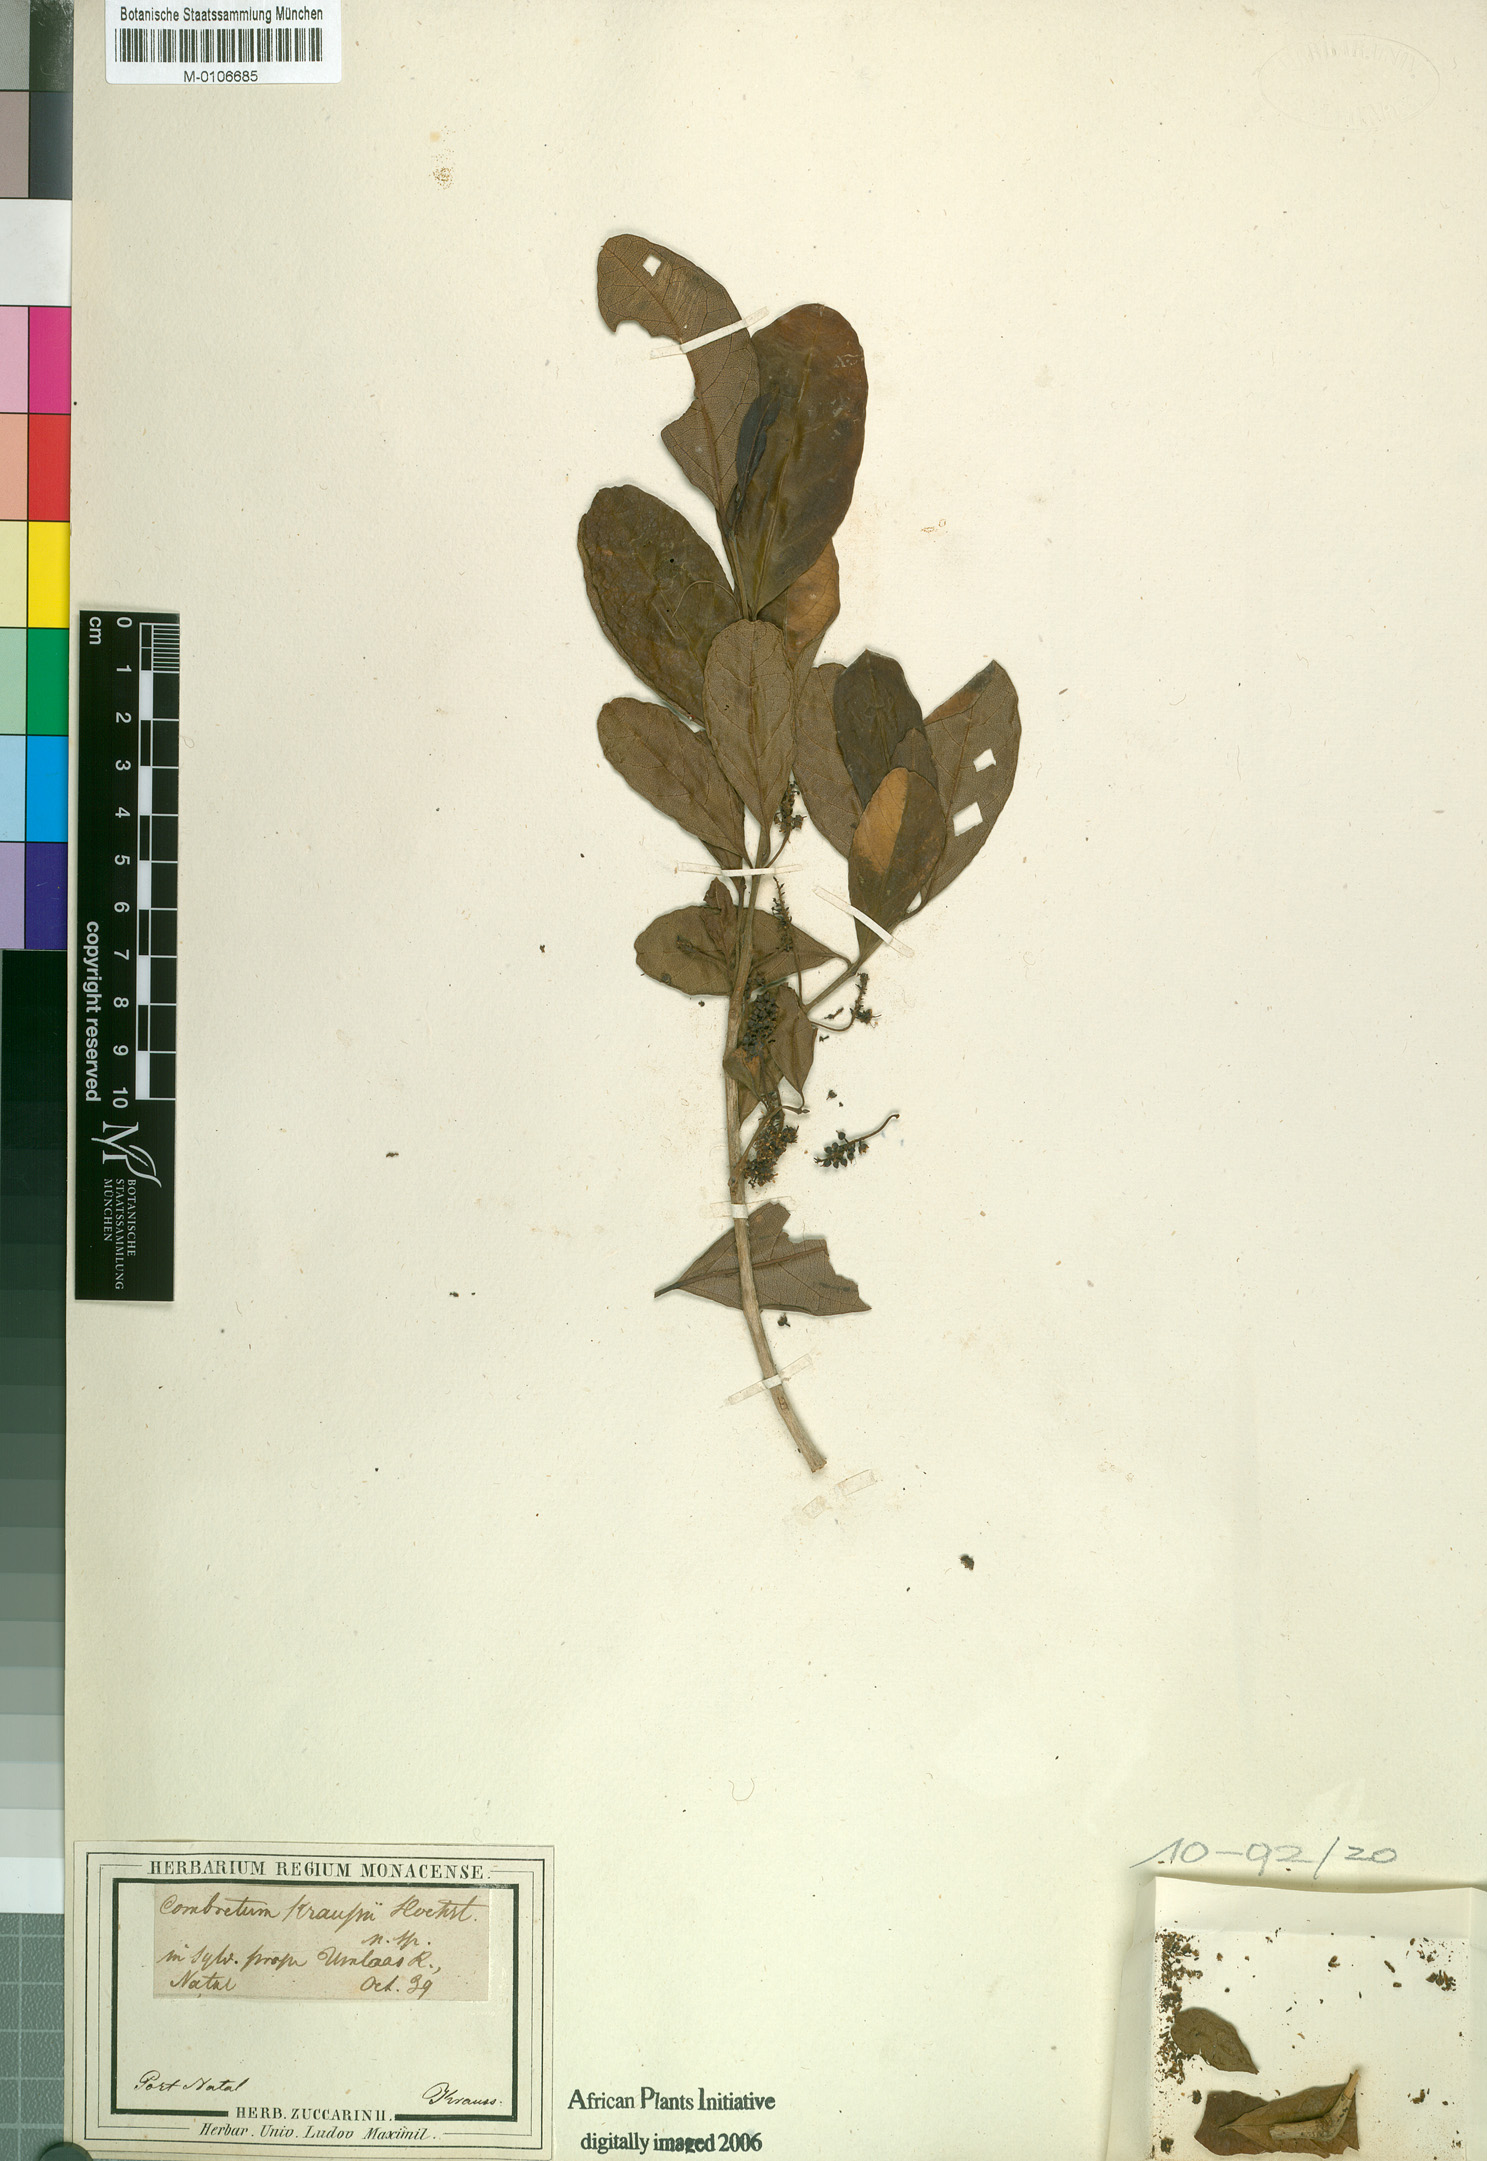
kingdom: Plantae
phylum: Tracheophyta
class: Magnoliopsida
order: Myrtales
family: Combretaceae
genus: Combretum
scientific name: Combretum kraussii
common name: Forest bushwillow
